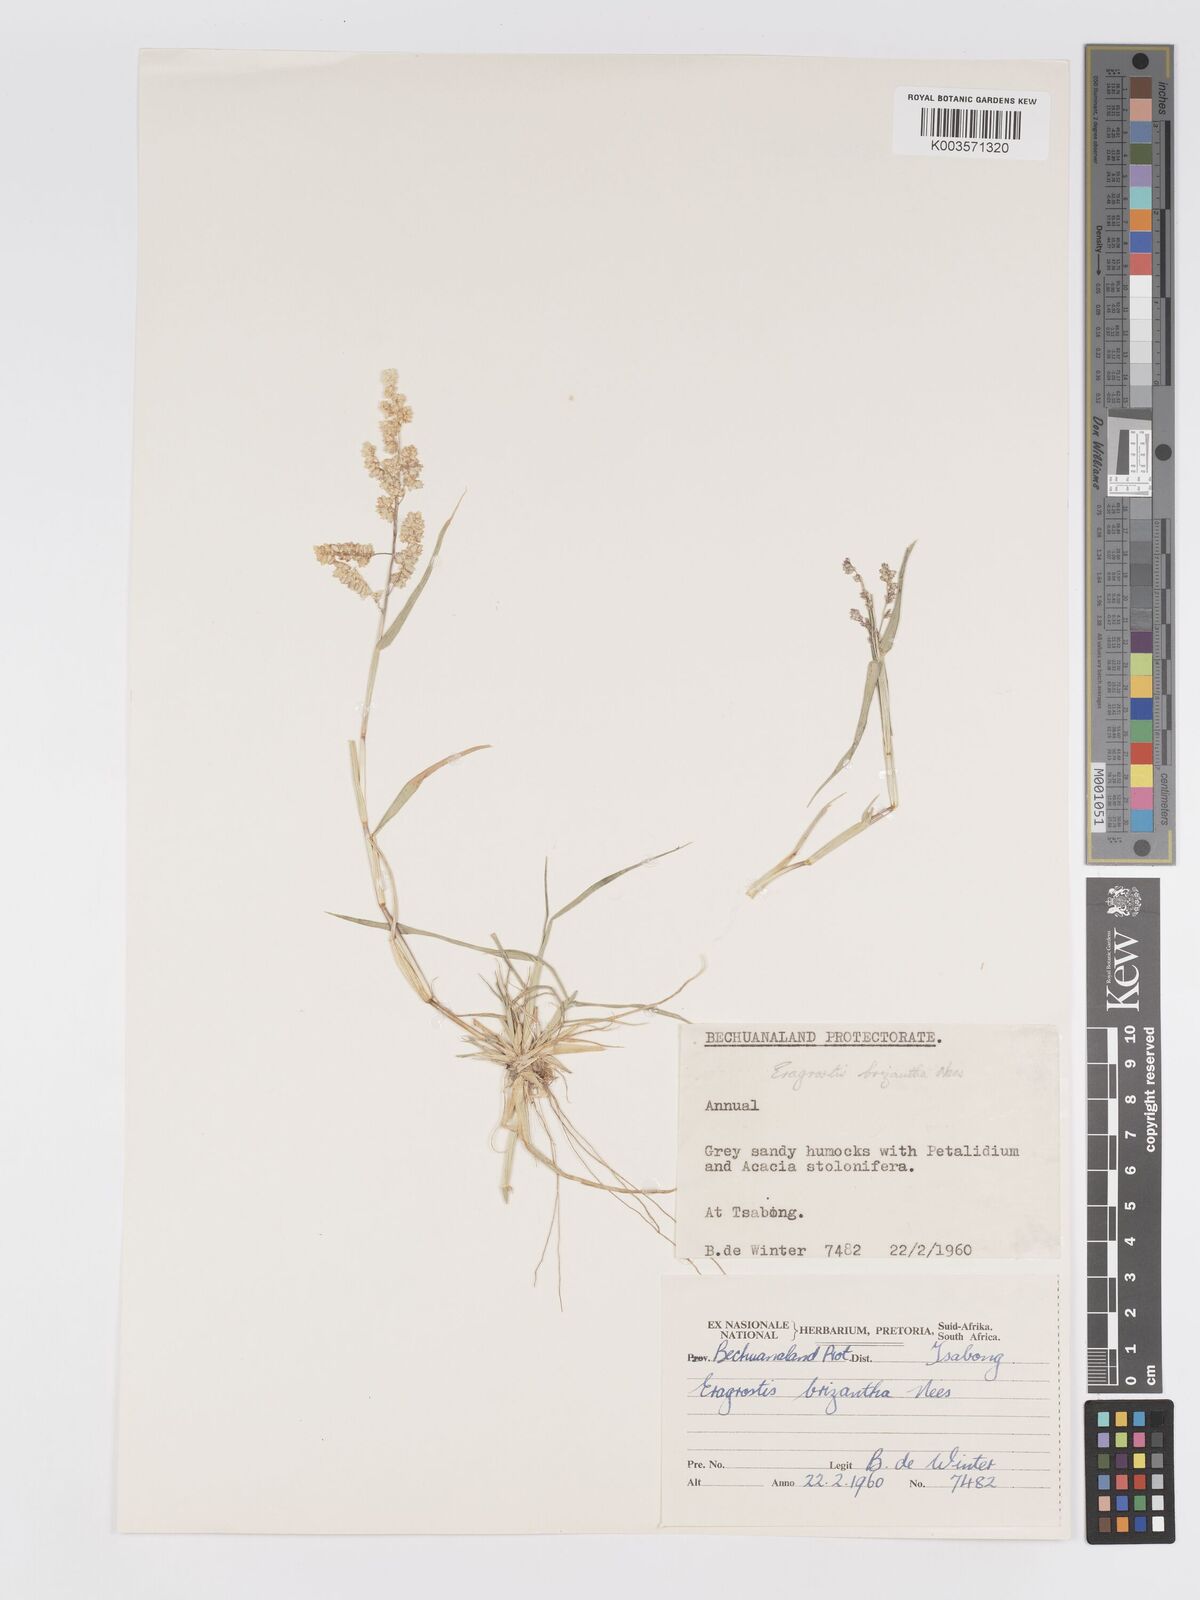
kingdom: Plantae
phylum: Tracheophyta
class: Liliopsida
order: Poales
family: Poaceae
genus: Eragrostis
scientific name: Eragrostis brizantha
